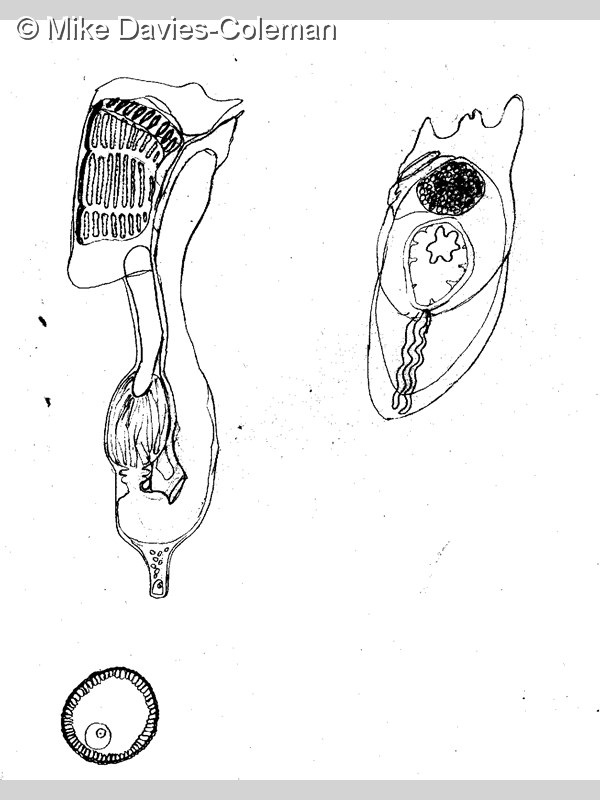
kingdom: Animalia
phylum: Chordata
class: Ascidiacea
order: Aplousobranchia
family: Holozoidae
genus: Distaplia
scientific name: Distaplia
